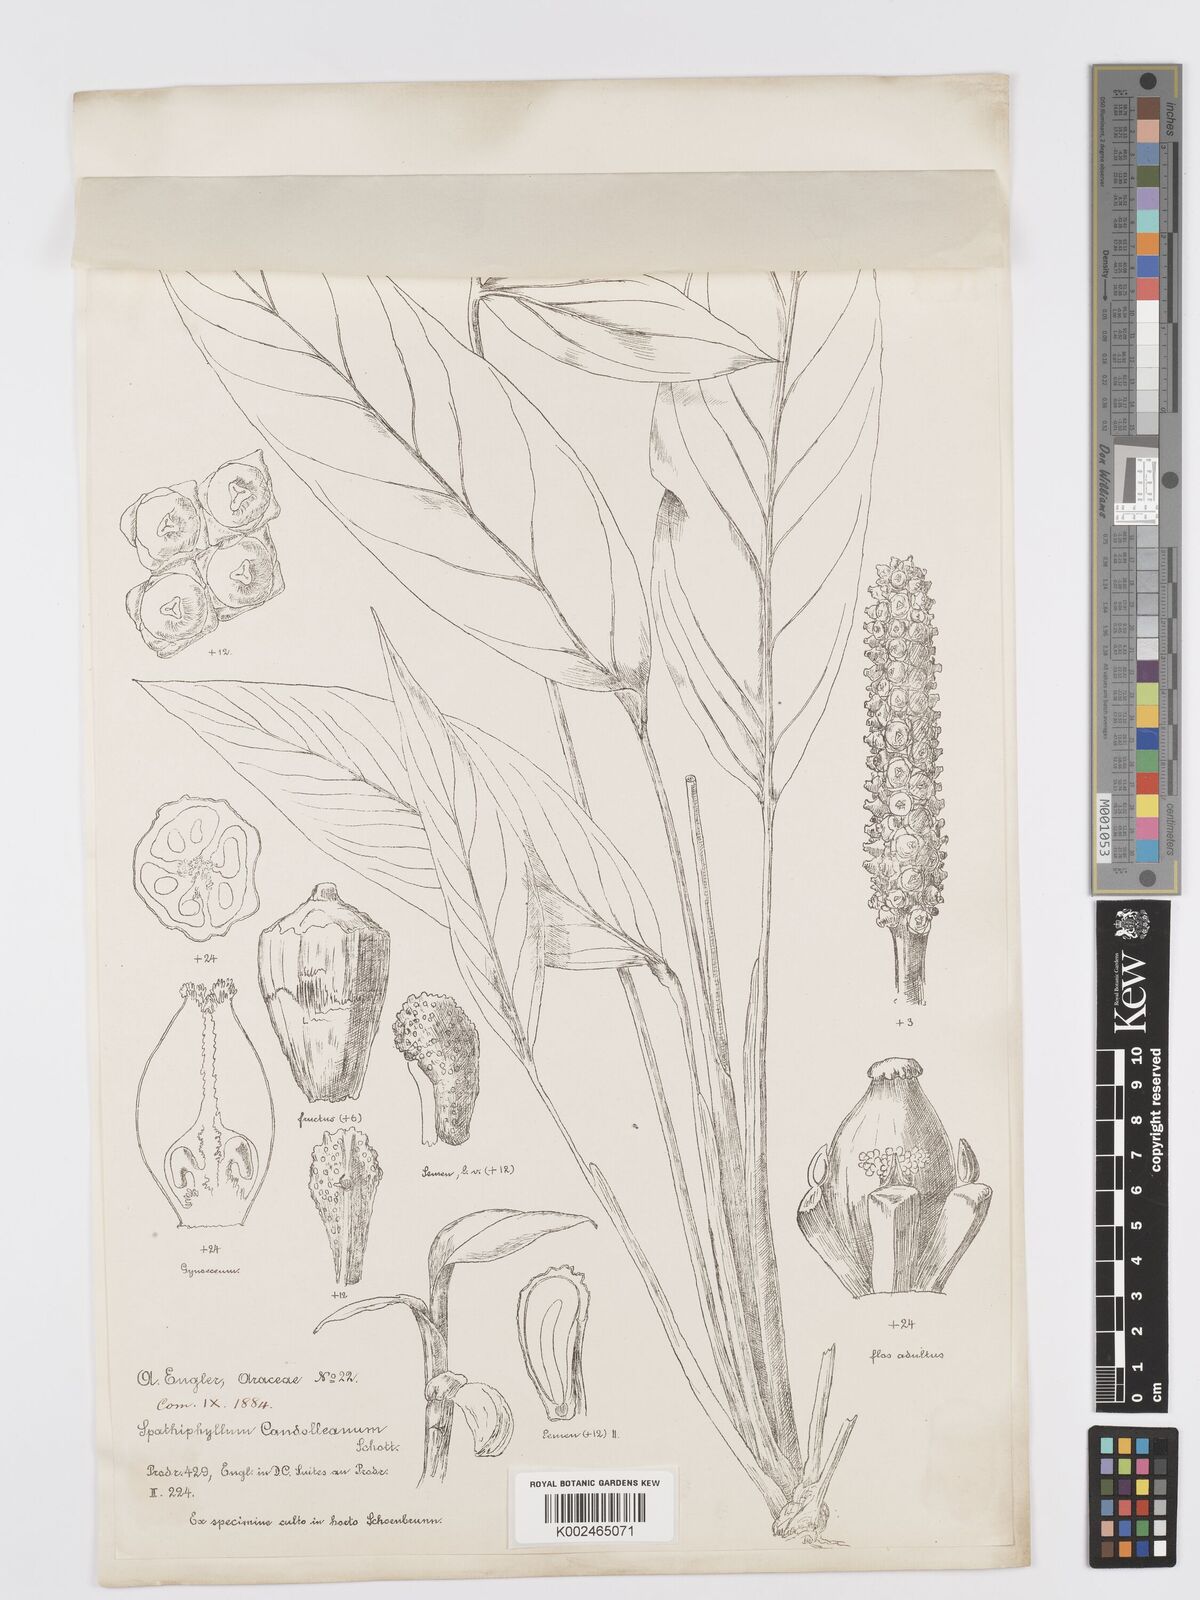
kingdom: Plantae
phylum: Tracheophyta
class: Liliopsida
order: Alismatales
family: Araceae
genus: Spathiphyllum
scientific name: Spathiphyllum humboldtii
